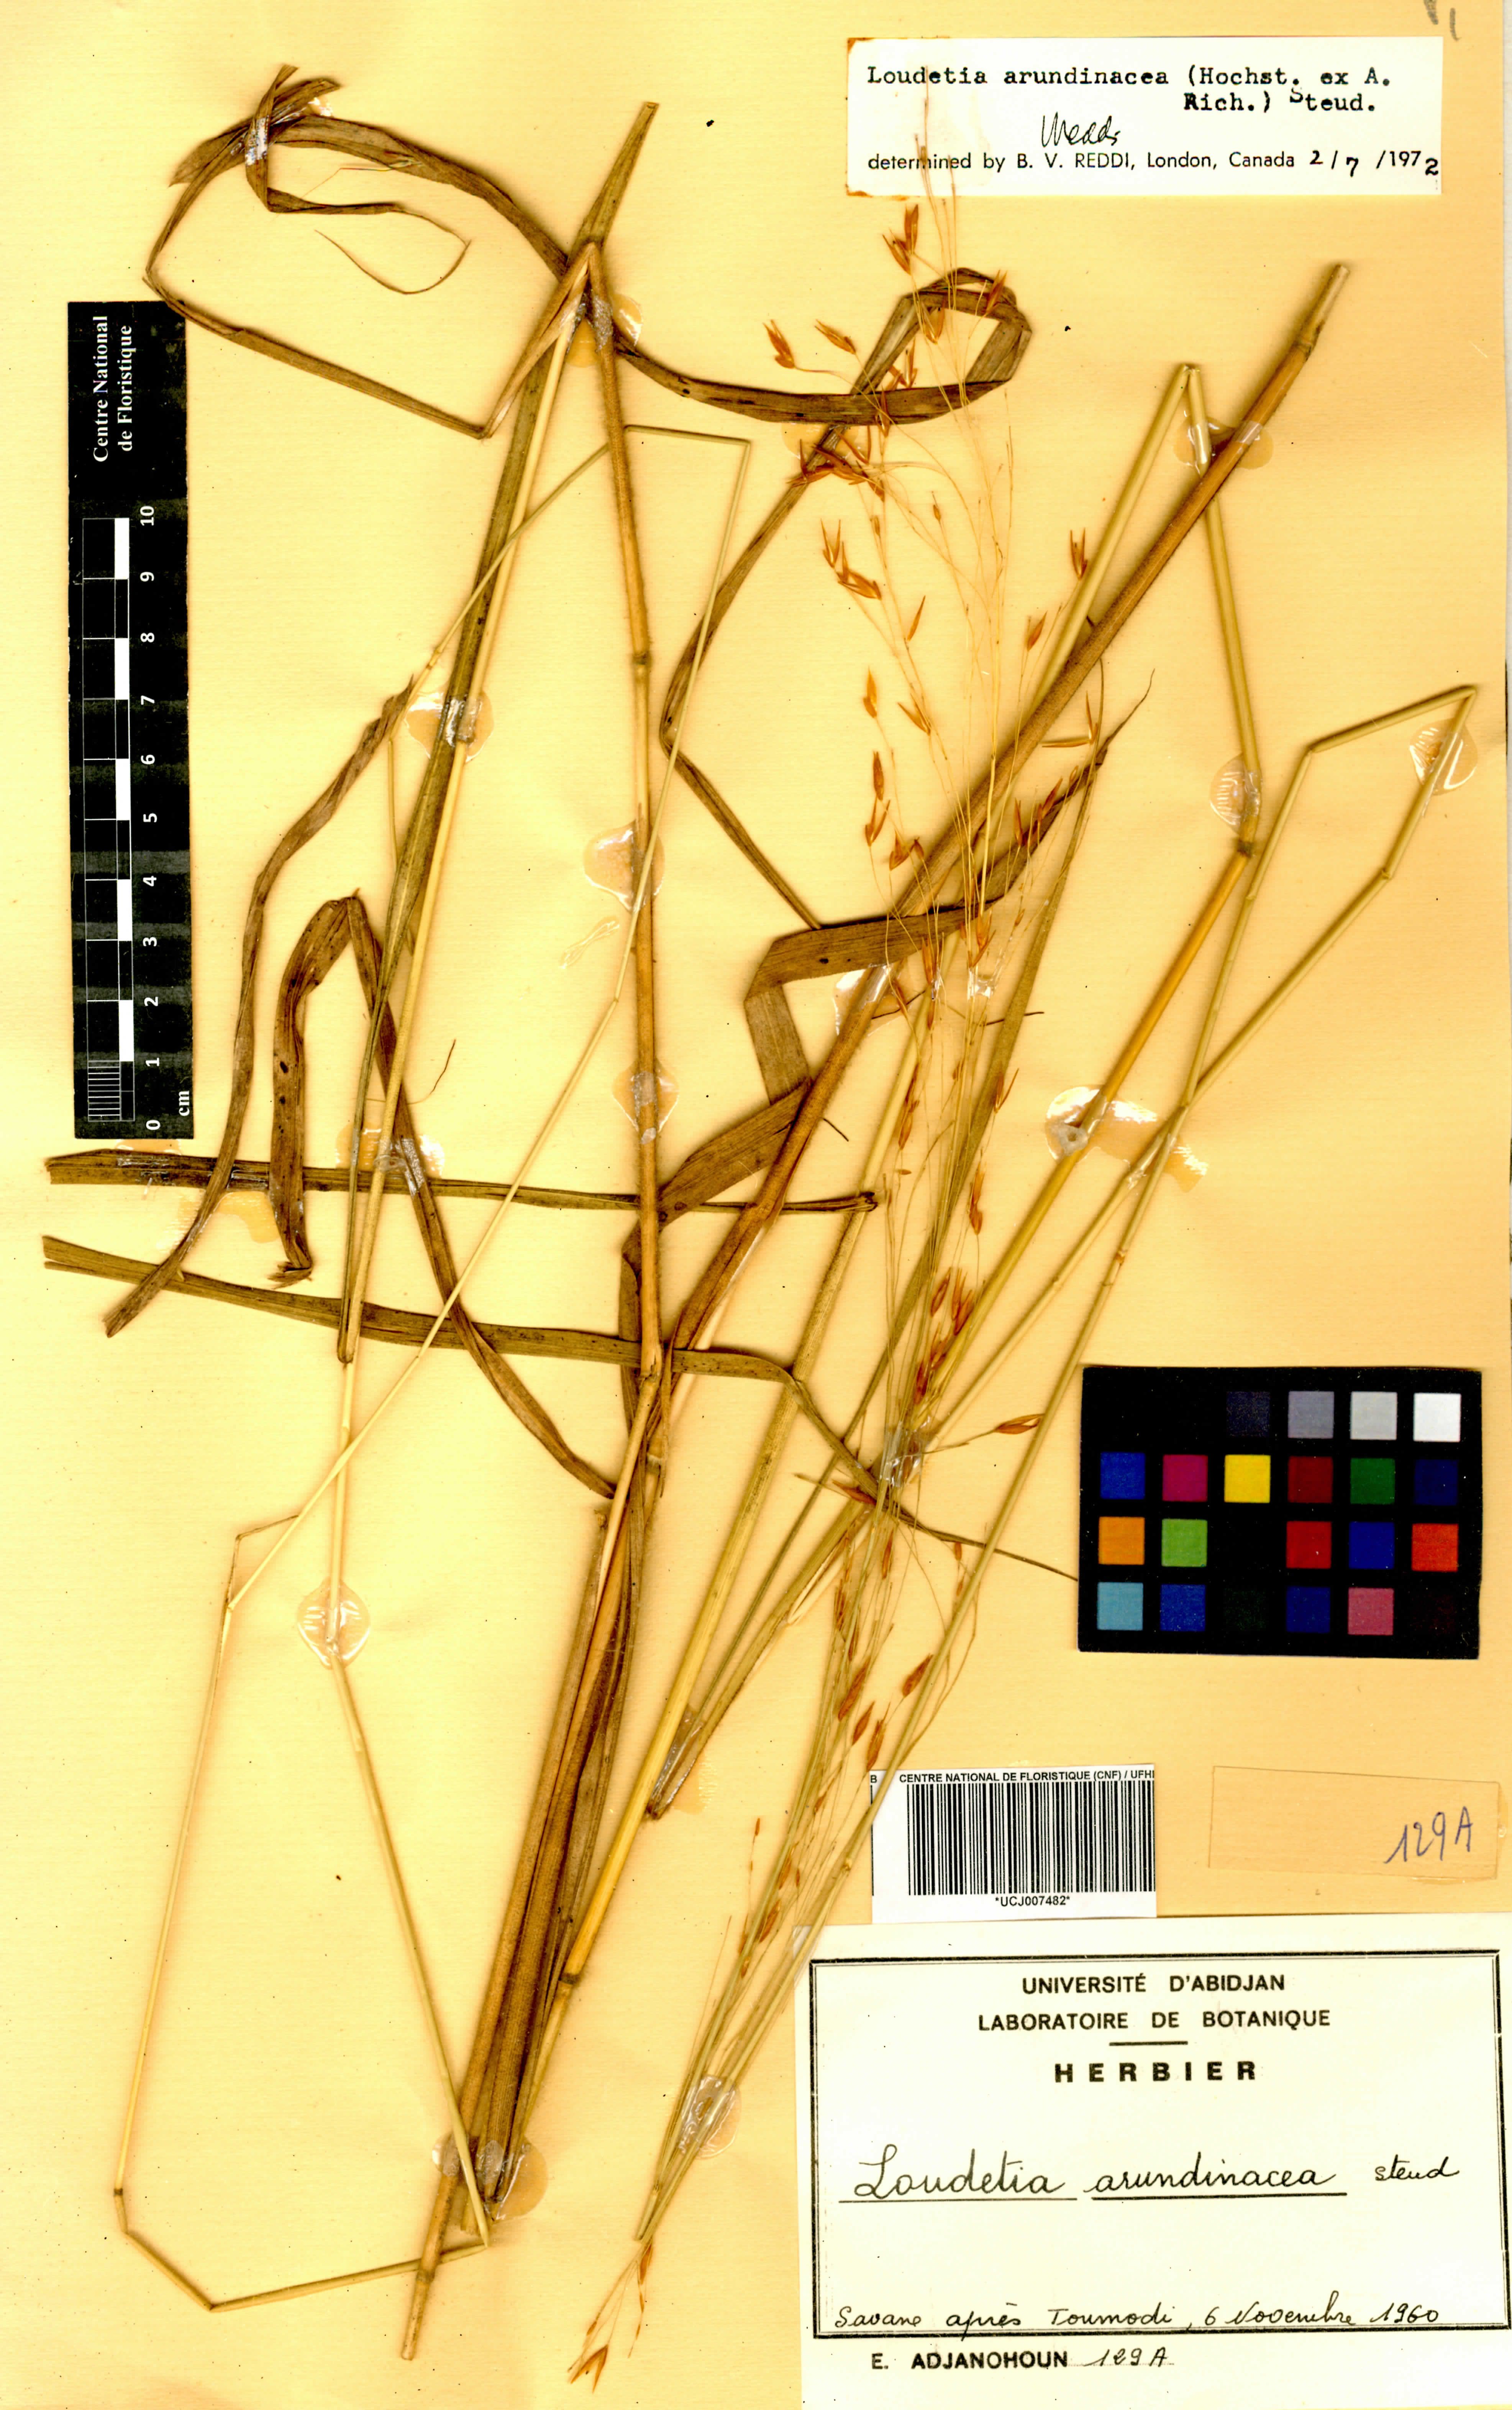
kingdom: Plantae
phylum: Tracheophyta
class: Liliopsida
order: Poales
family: Poaceae
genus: Loudetia
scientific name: Loudetia arundinacea
